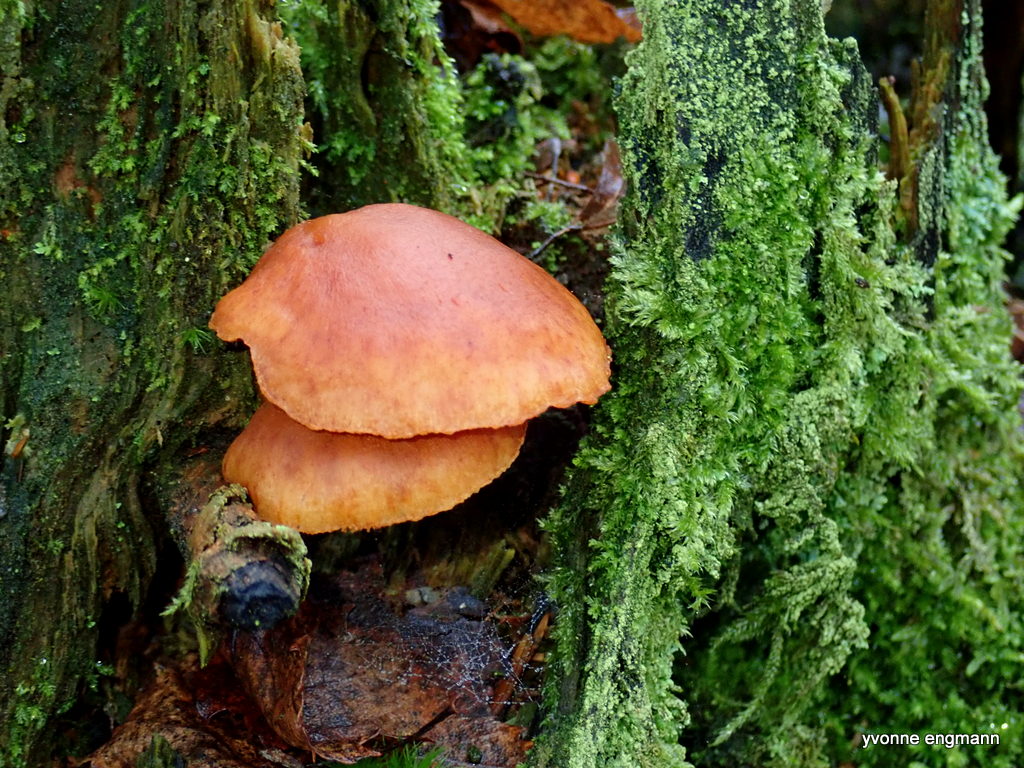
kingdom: Fungi
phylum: Basidiomycota
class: Agaricomycetes
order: Agaricales
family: Hymenogastraceae
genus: Gymnopilus
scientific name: Gymnopilus penetrans
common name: plettet flammehat
